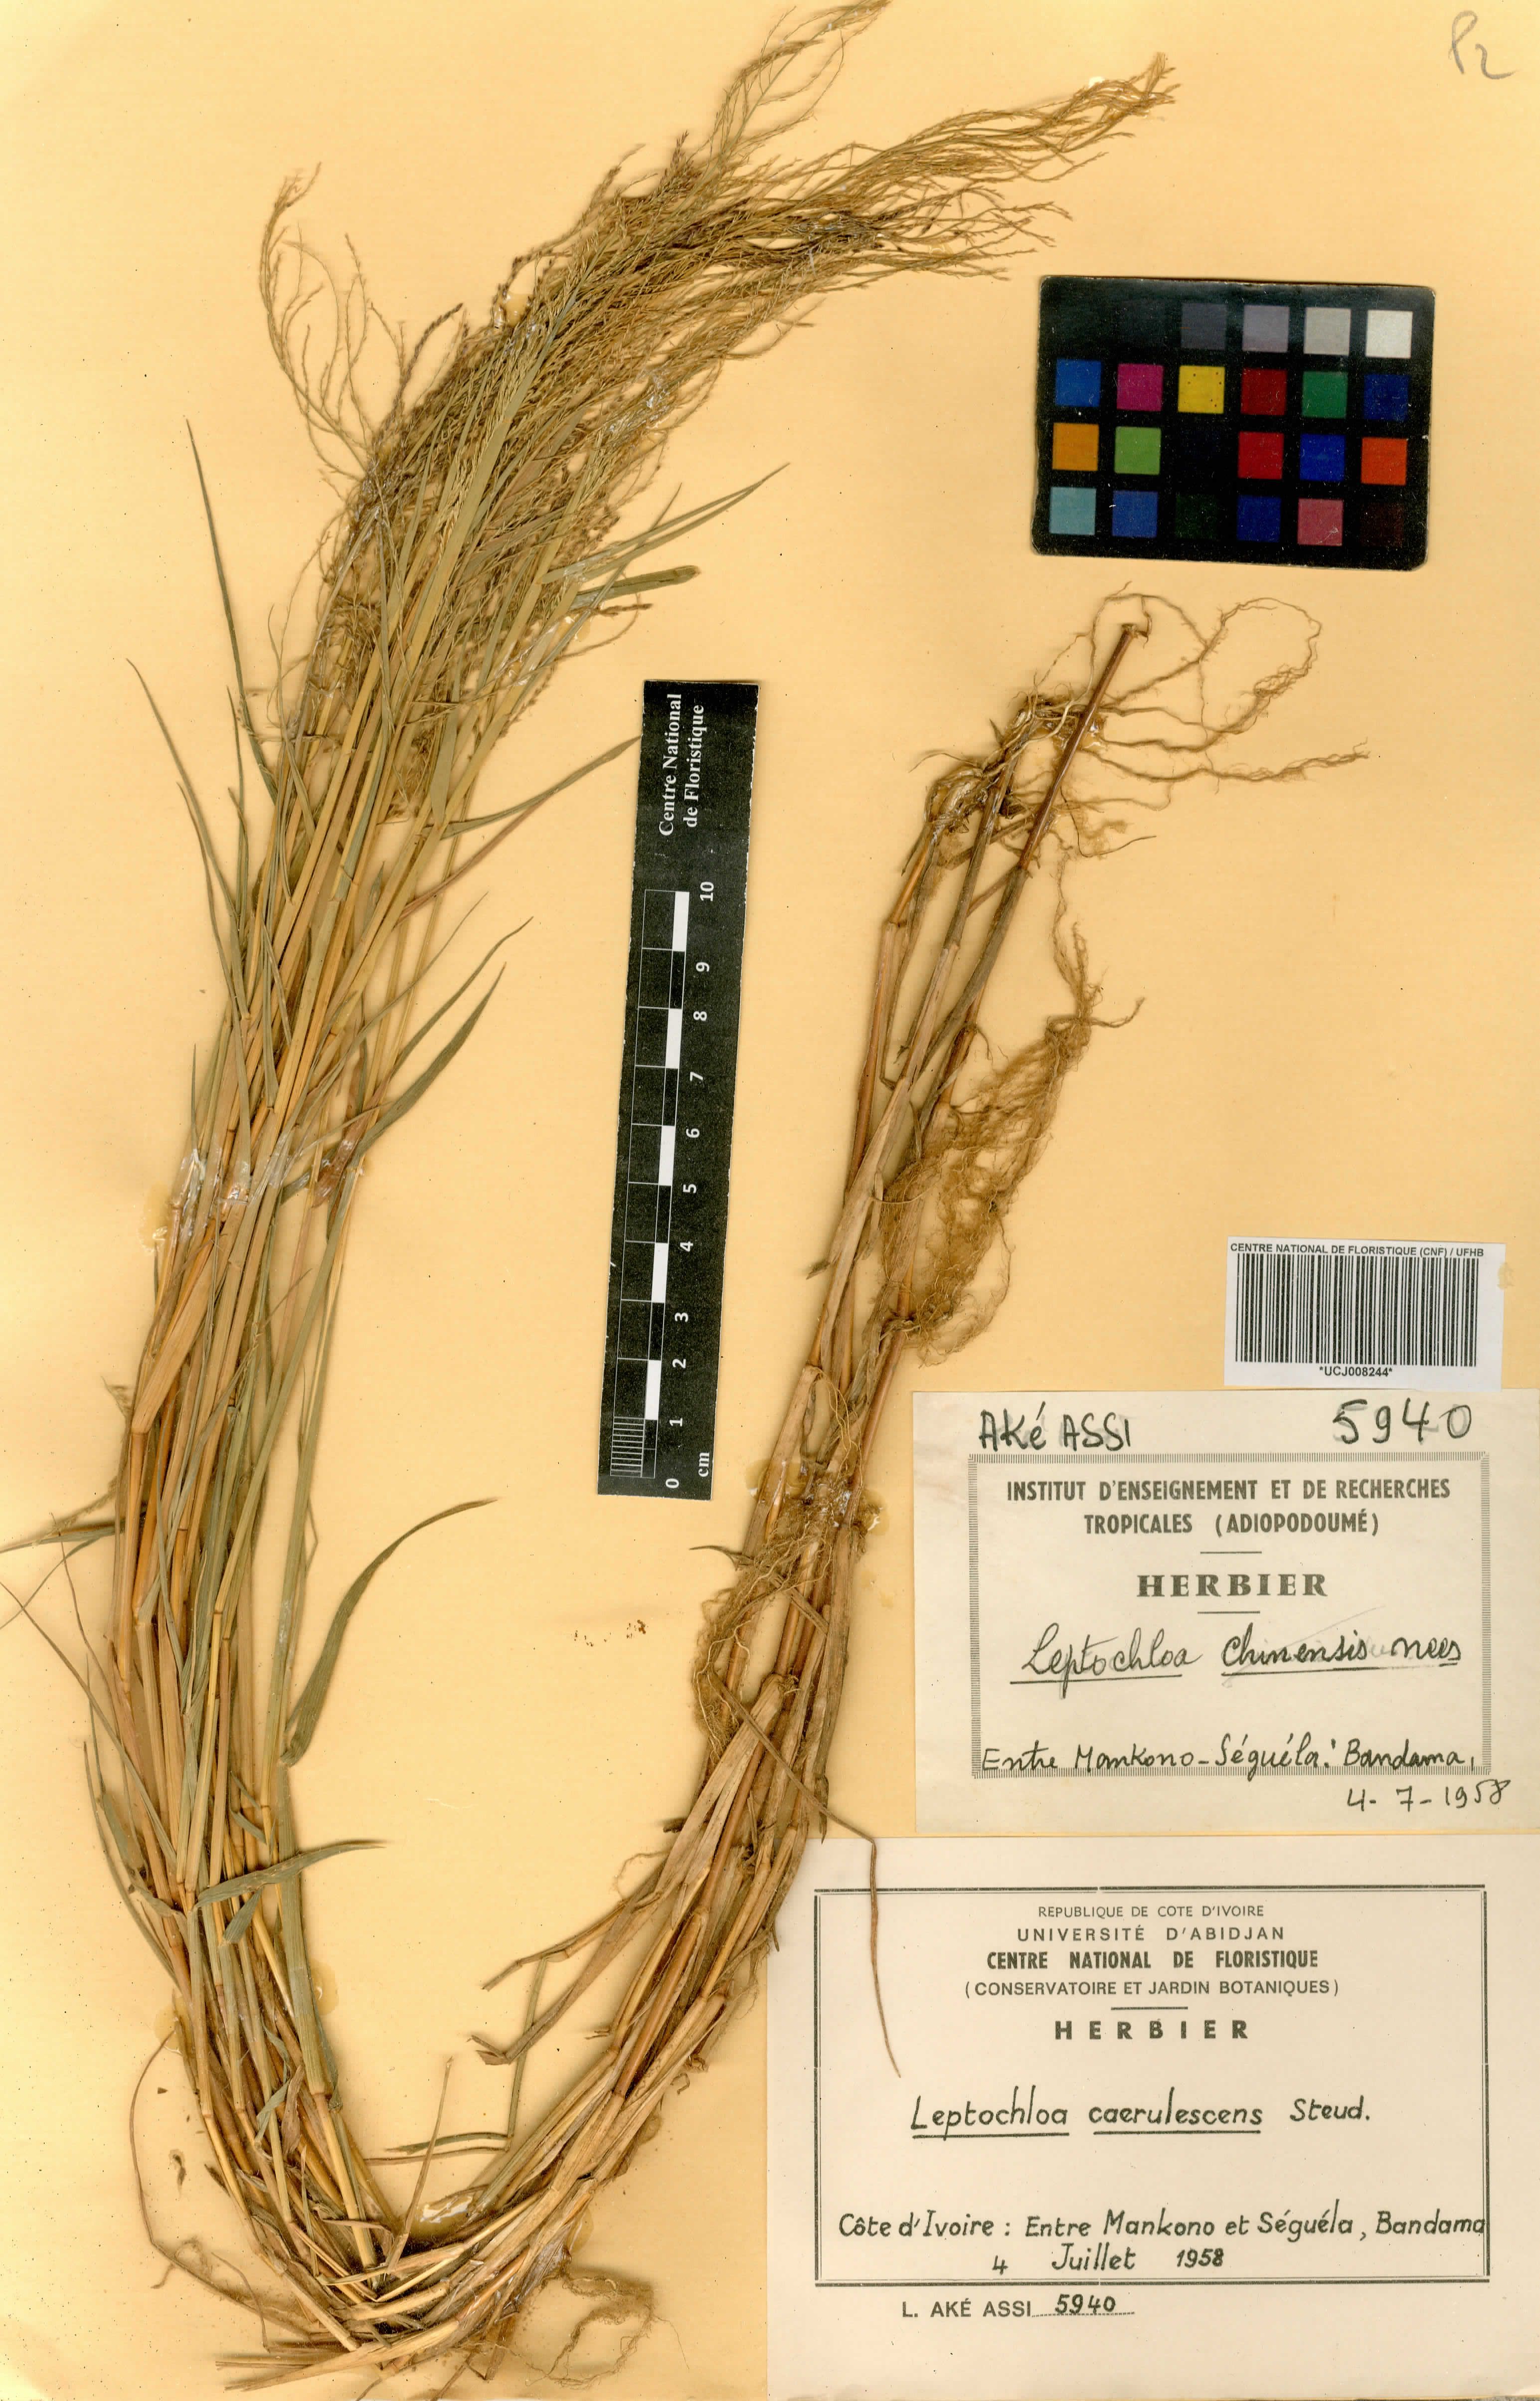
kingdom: Plantae
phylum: Tracheophyta
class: Liliopsida
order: Poales
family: Poaceae
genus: Leptochloa
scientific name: Leptochloa caerulescens
